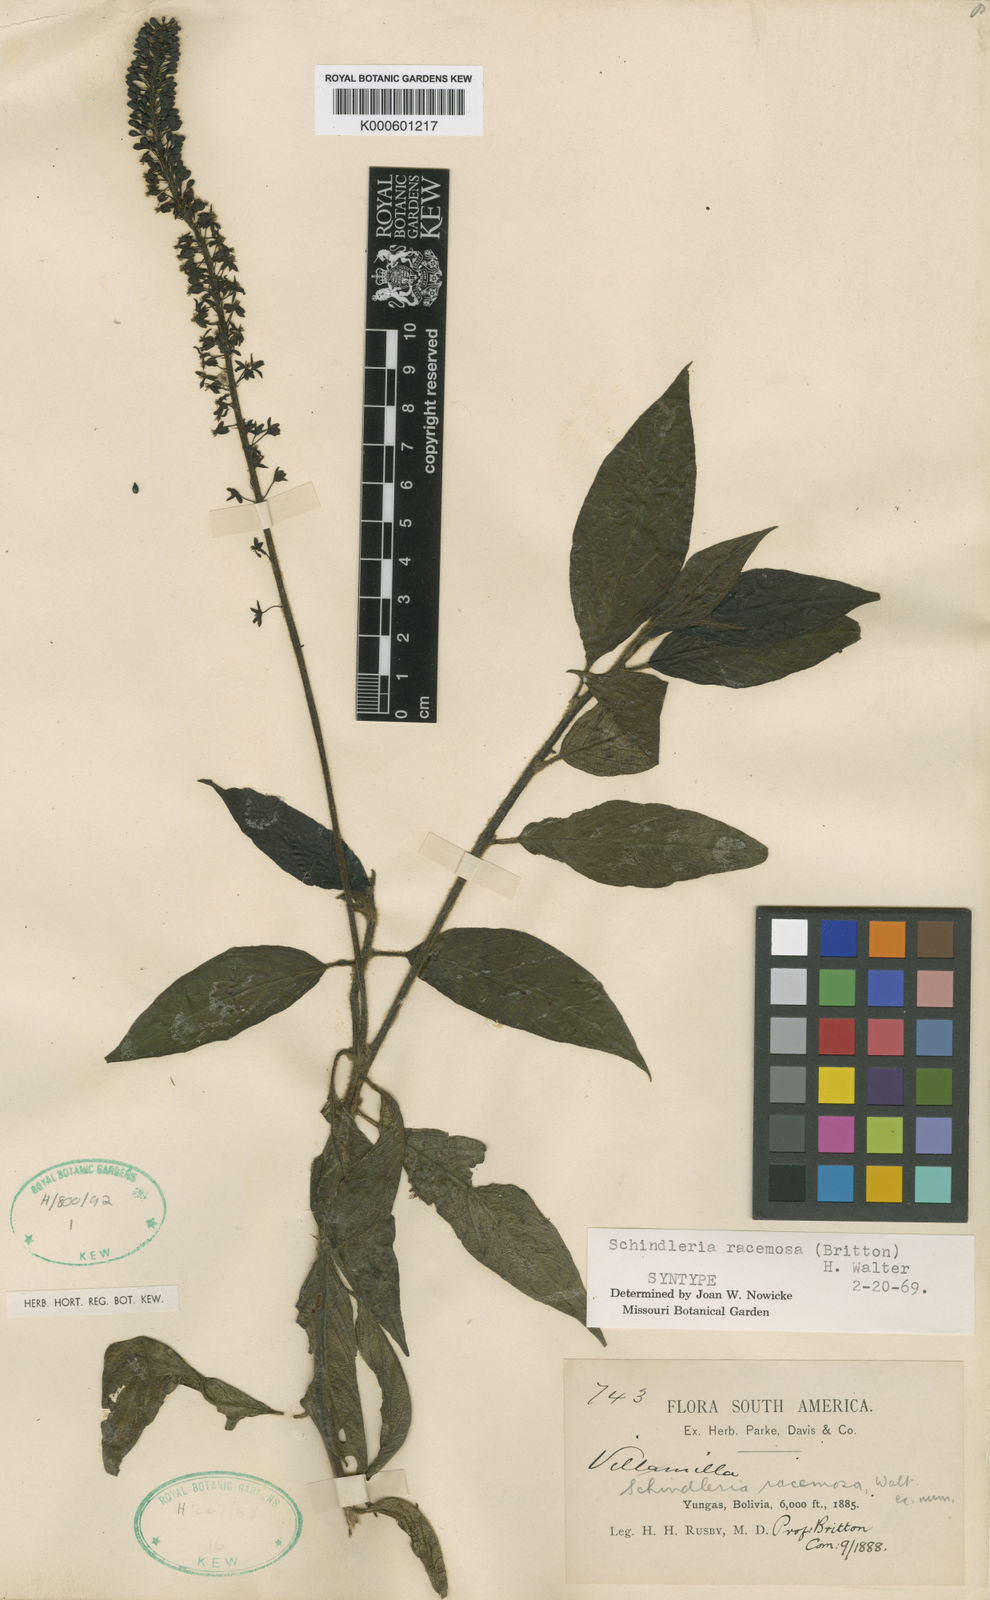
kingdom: Plantae
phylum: Tracheophyta
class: Magnoliopsida
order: Caryophyllales
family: Phytolaccaceae
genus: Schindleria
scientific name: Schindleria racemosa
